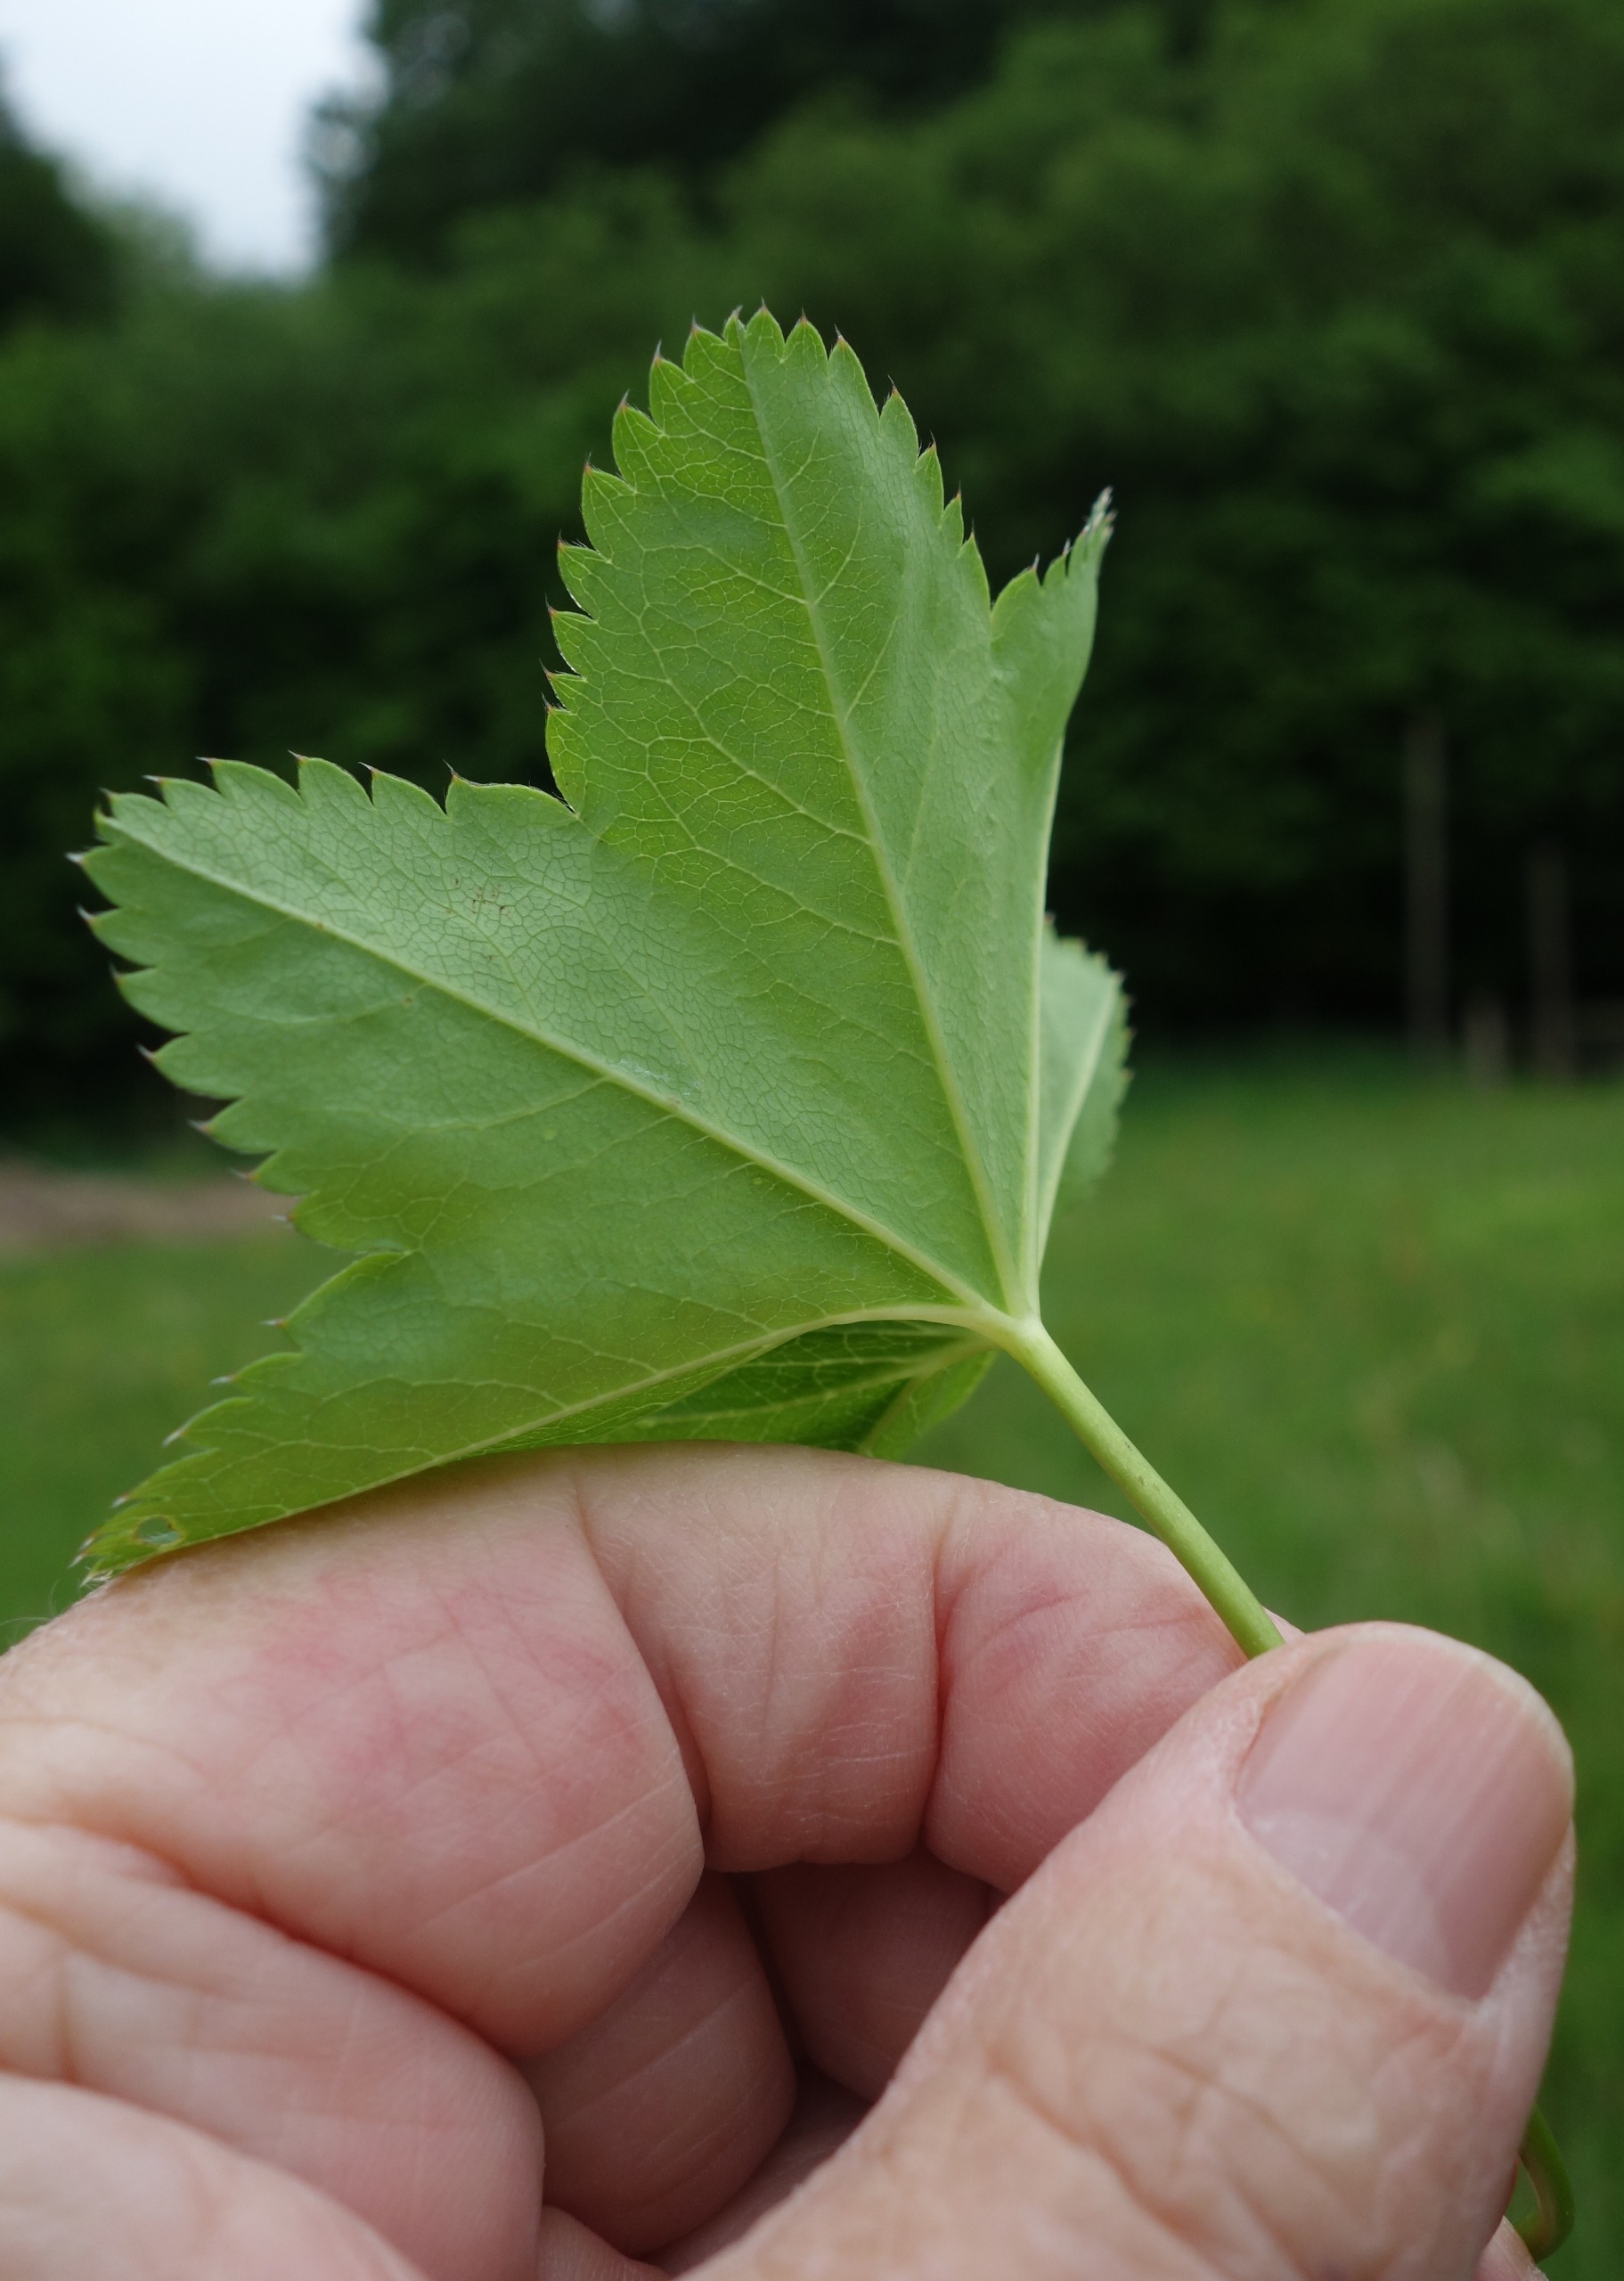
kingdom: Plantae
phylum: Tracheophyta
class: Magnoliopsida
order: Rosales
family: Rosaceae
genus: Alchemilla
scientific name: Alchemilla glabra
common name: Glat løvefod
